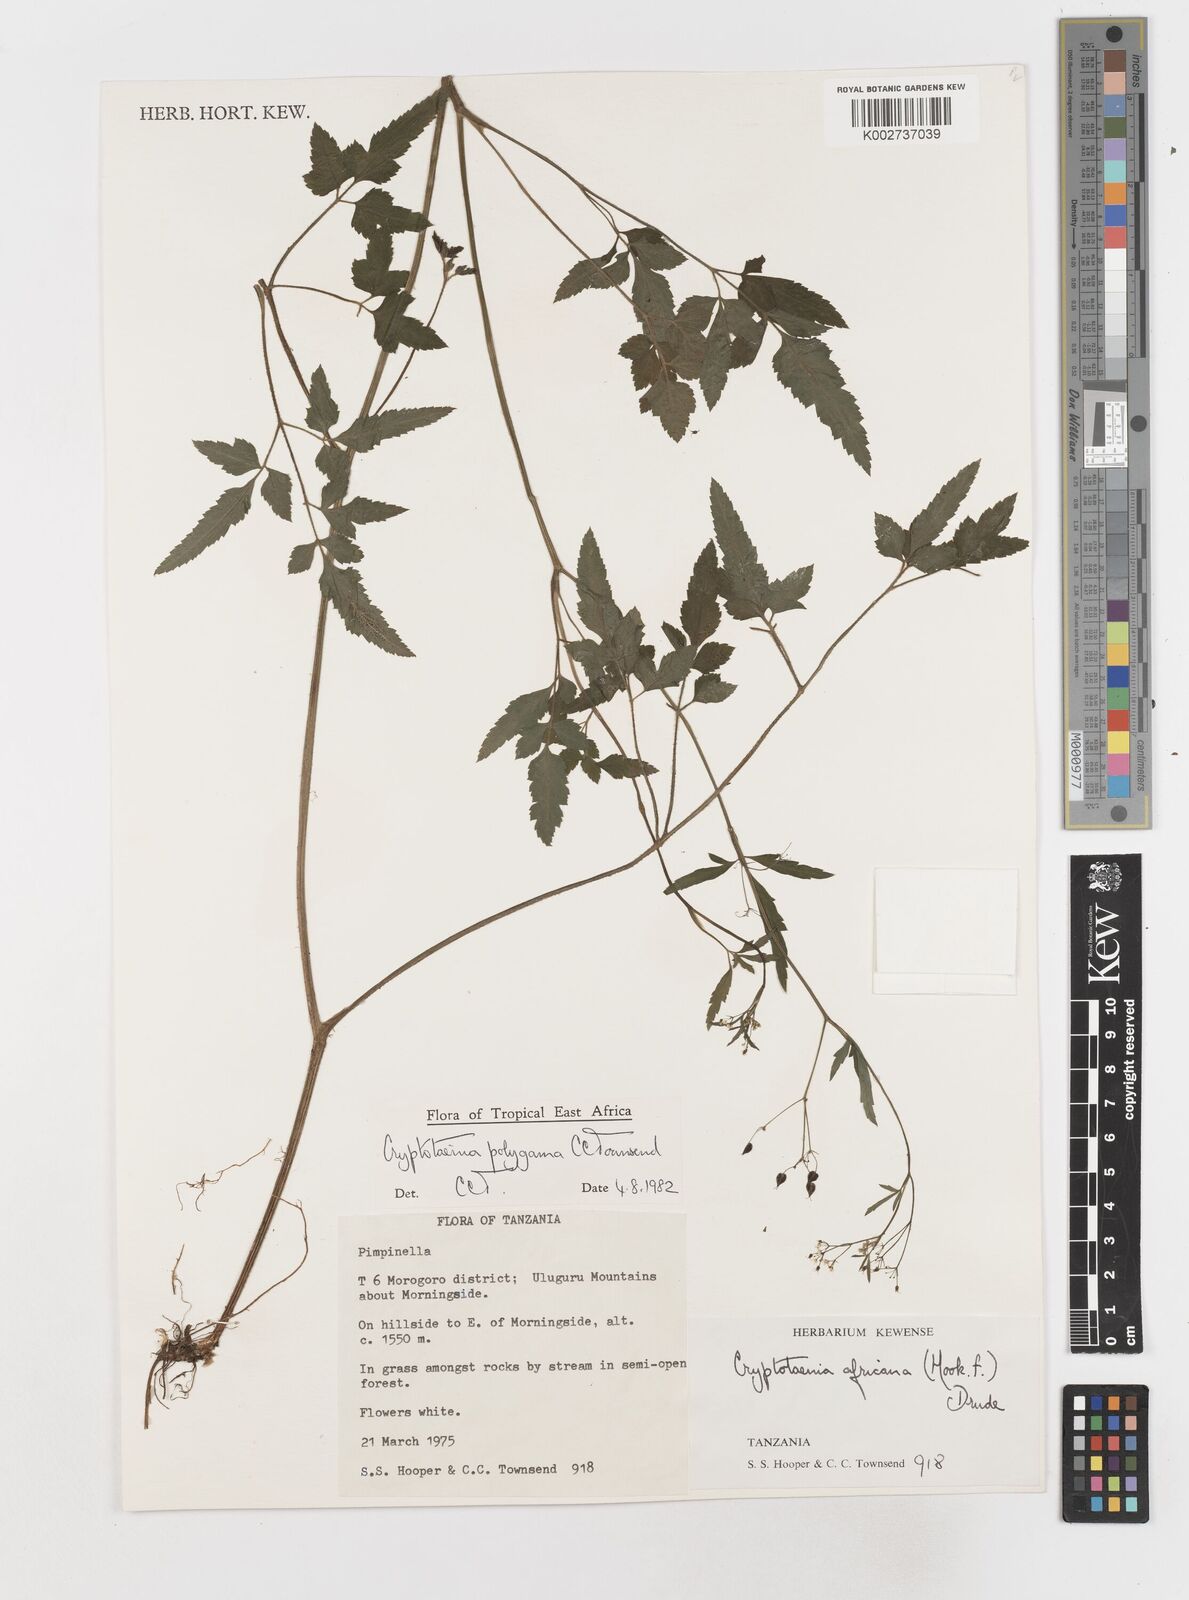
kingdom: Plantae
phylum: Tracheophyta
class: Magnoliopsida
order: Apiales
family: Apiaceae
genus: Cryptotaenia
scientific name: Cryptotaenia polygama
